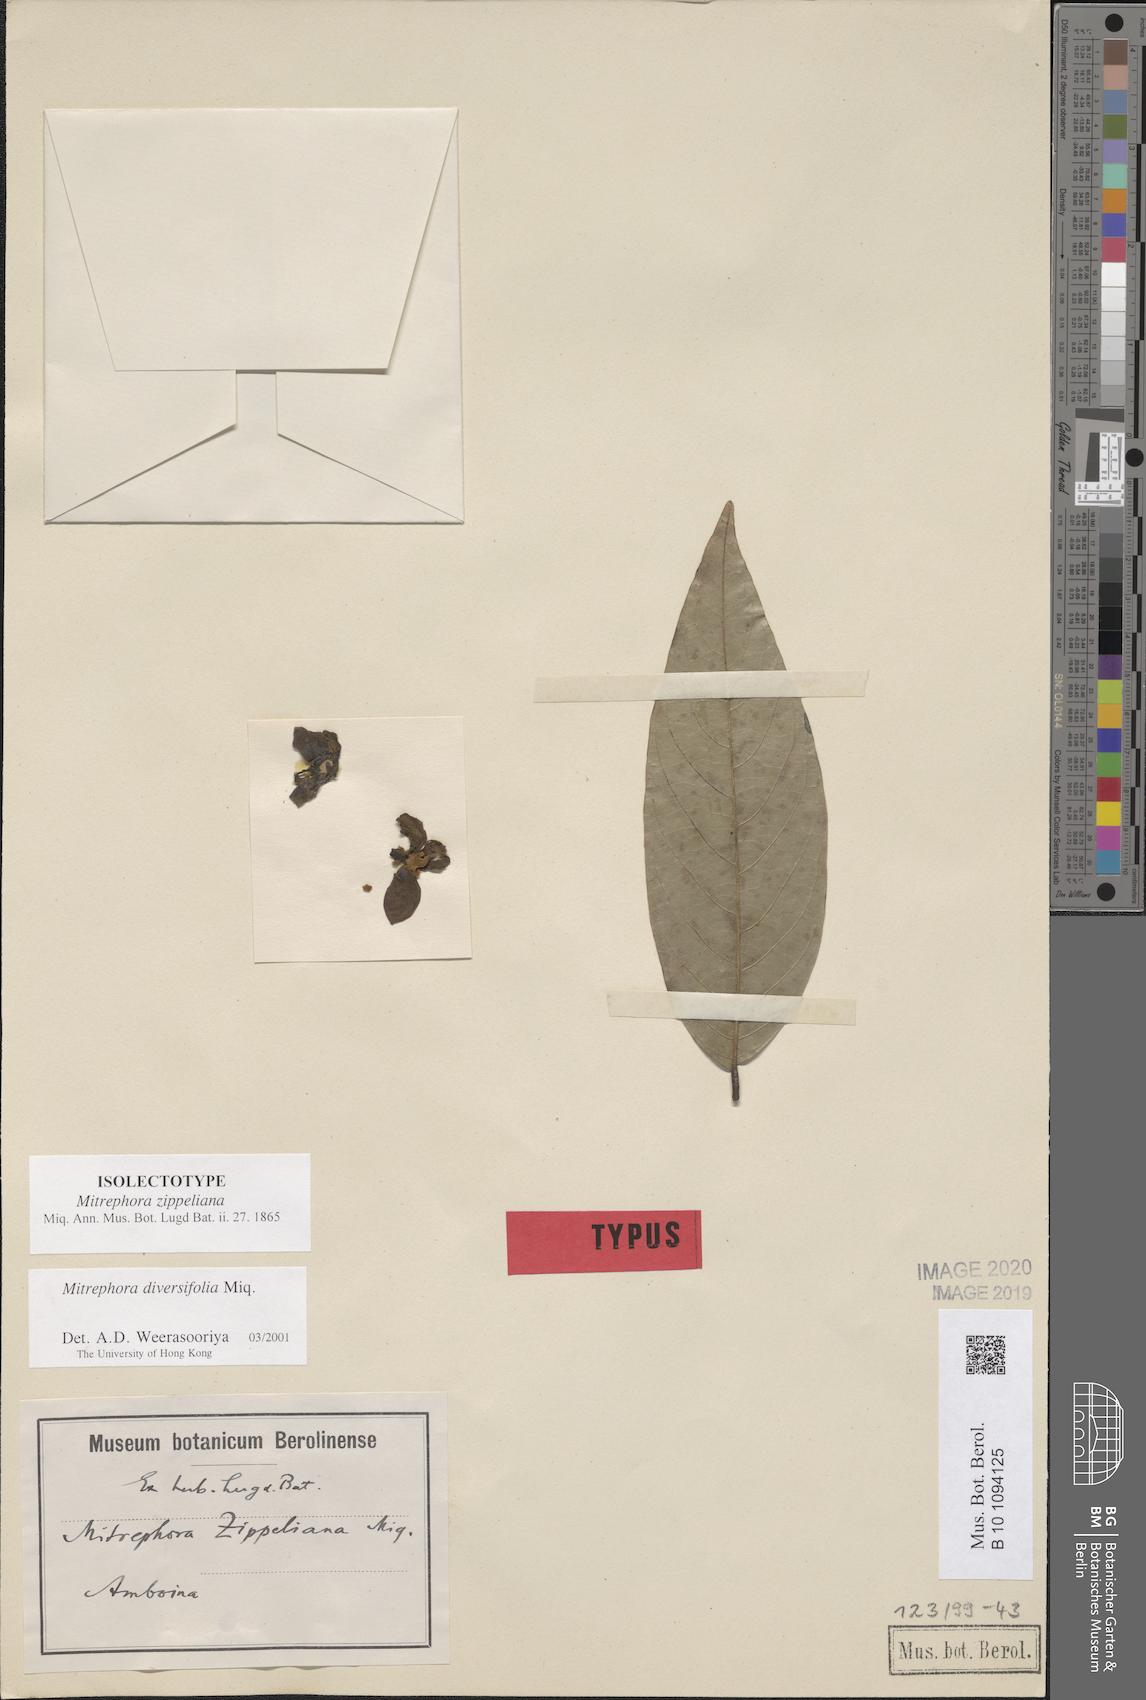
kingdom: Plantae
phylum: Tracheophyta
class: Magnoliopsida
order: Magnoliales
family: Annonaceae
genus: Mitrephora
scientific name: Mitrephora diversifolia
